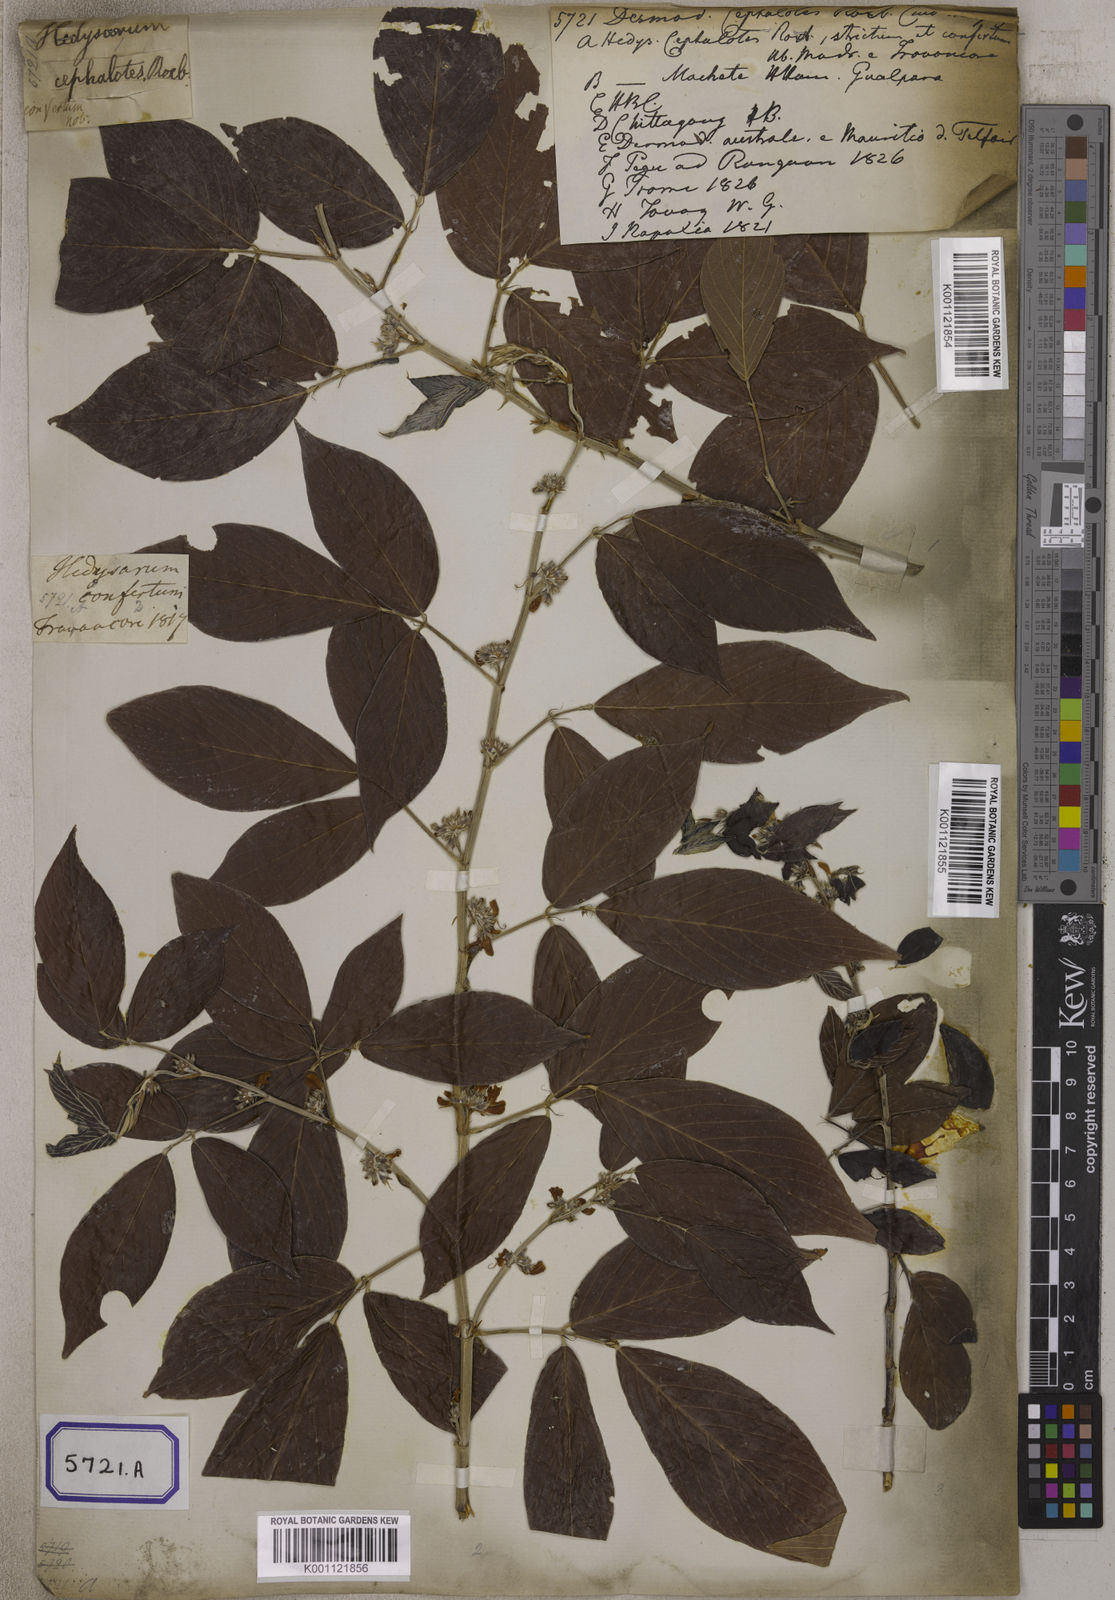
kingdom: Plantae
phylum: Tracheophyta
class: Magnoliopsida
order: Fabales
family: Fabaceae
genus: Desmodium
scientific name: Desmodium
